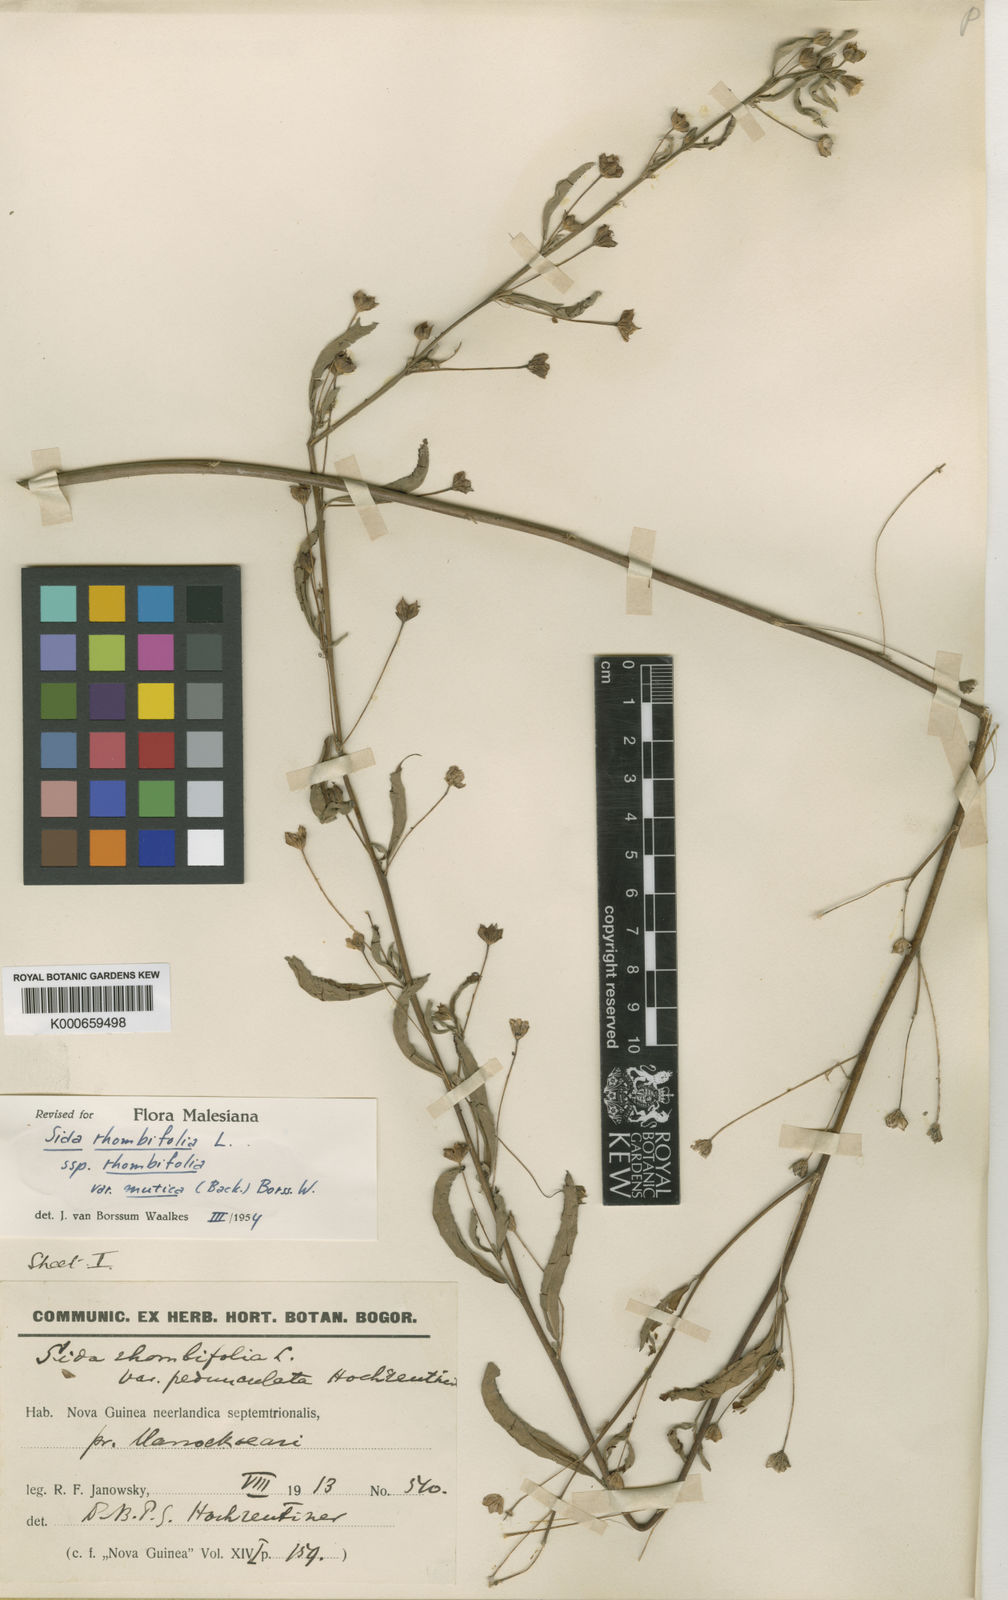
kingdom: Plantae
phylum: Tracheophyta
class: Magnoliopsida
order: Malvales
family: Malvaceae
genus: Sida
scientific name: Sida rhombifolia
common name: Queensland-hemp
